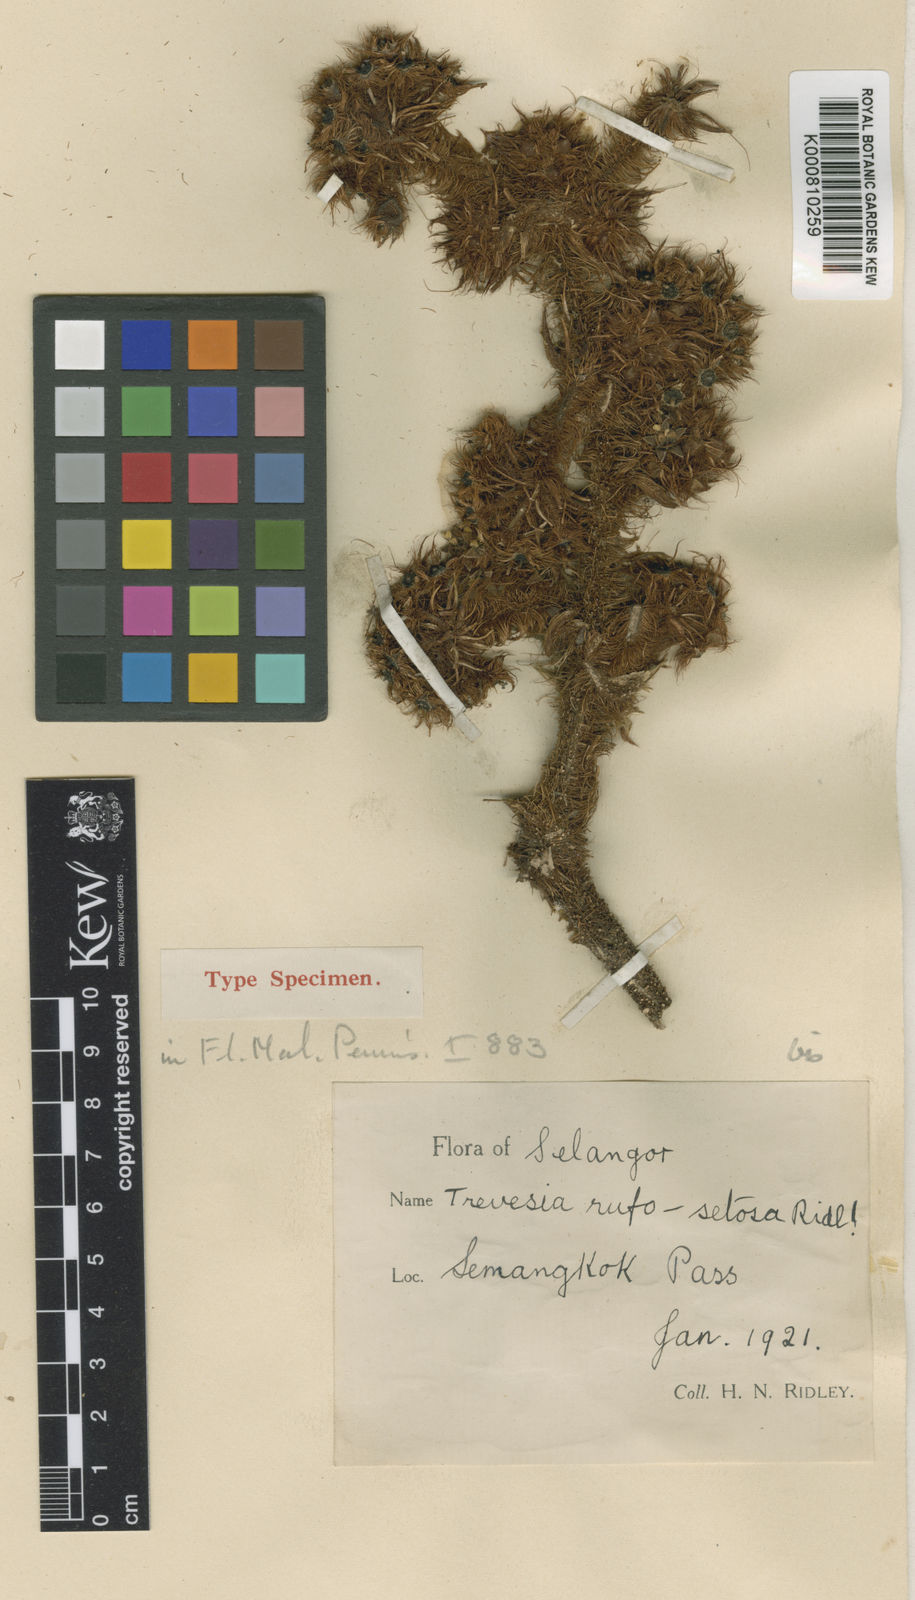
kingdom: Plantae
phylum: Tracheophyta
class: Magnoliopsida
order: Apiales
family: Araliaceae
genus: Brassaiopsis
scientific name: Brassaiopsis rufosetosa
